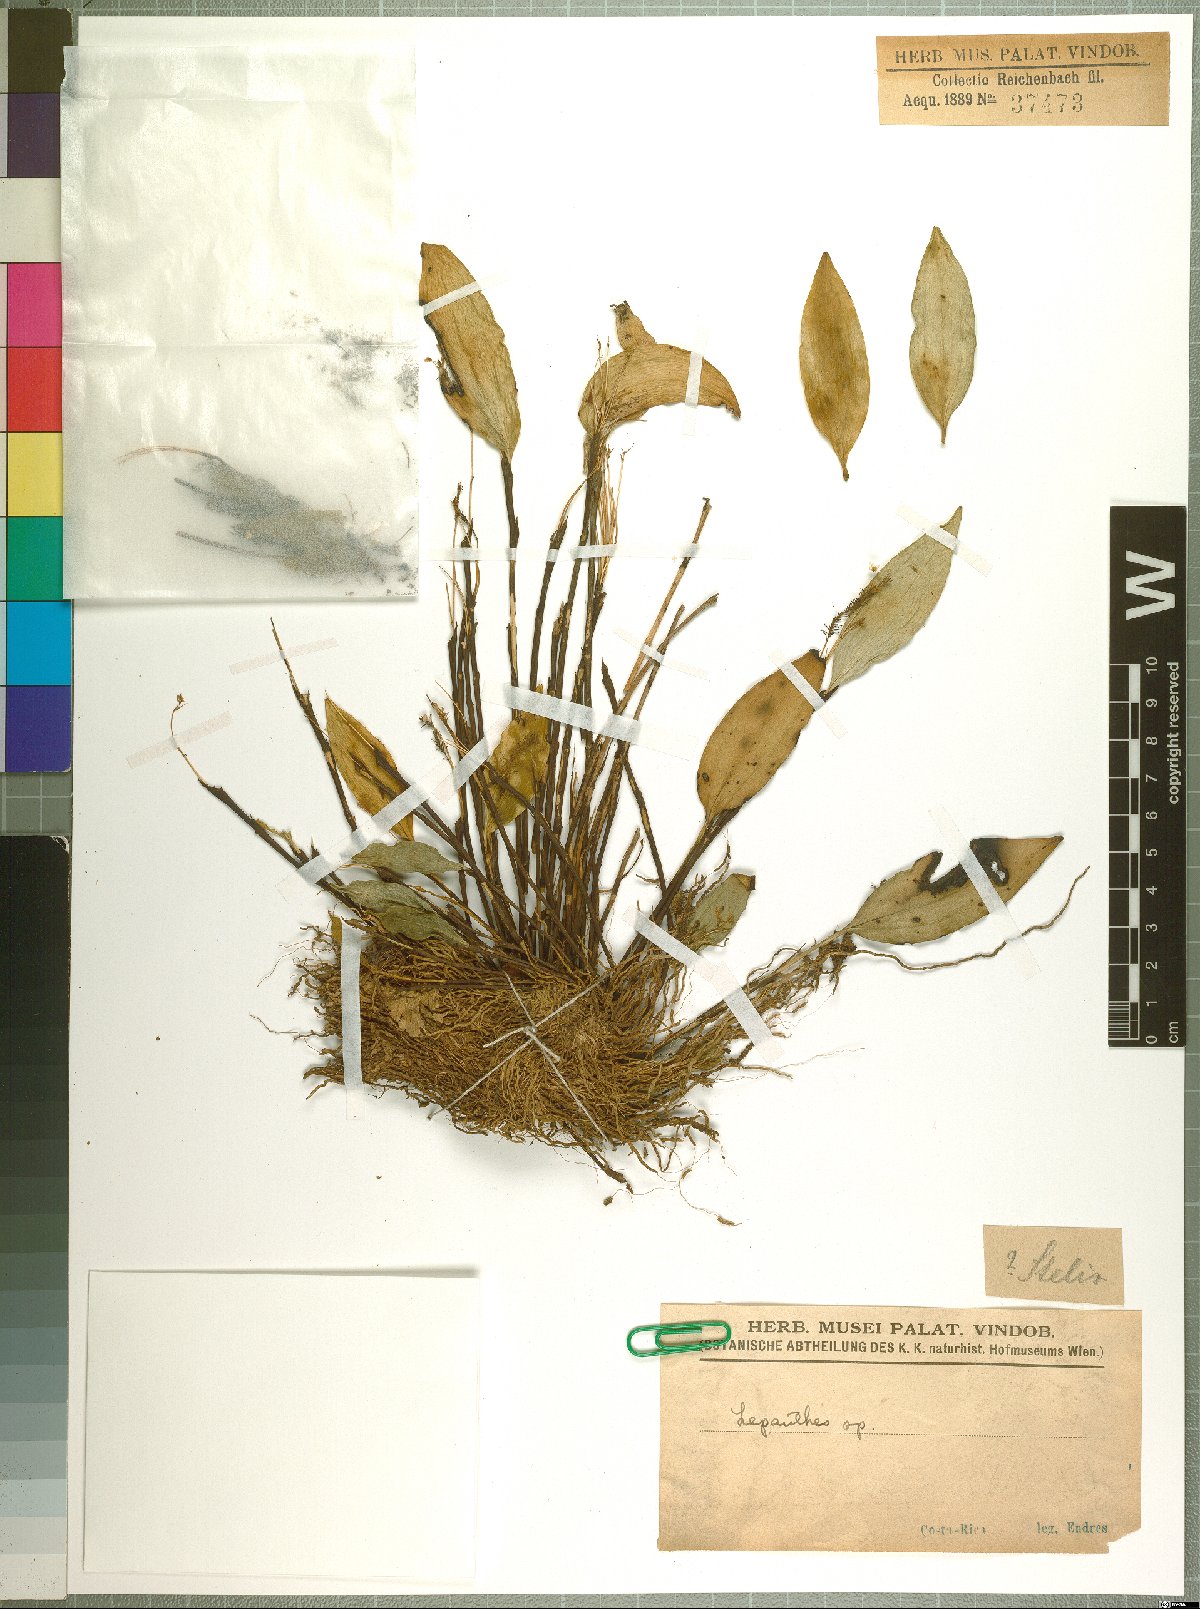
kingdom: Plantae
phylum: Tracheophyta
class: Liliopsida
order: Asparagales
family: Orchidaceae
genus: Lepanthes
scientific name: Lepanthes
